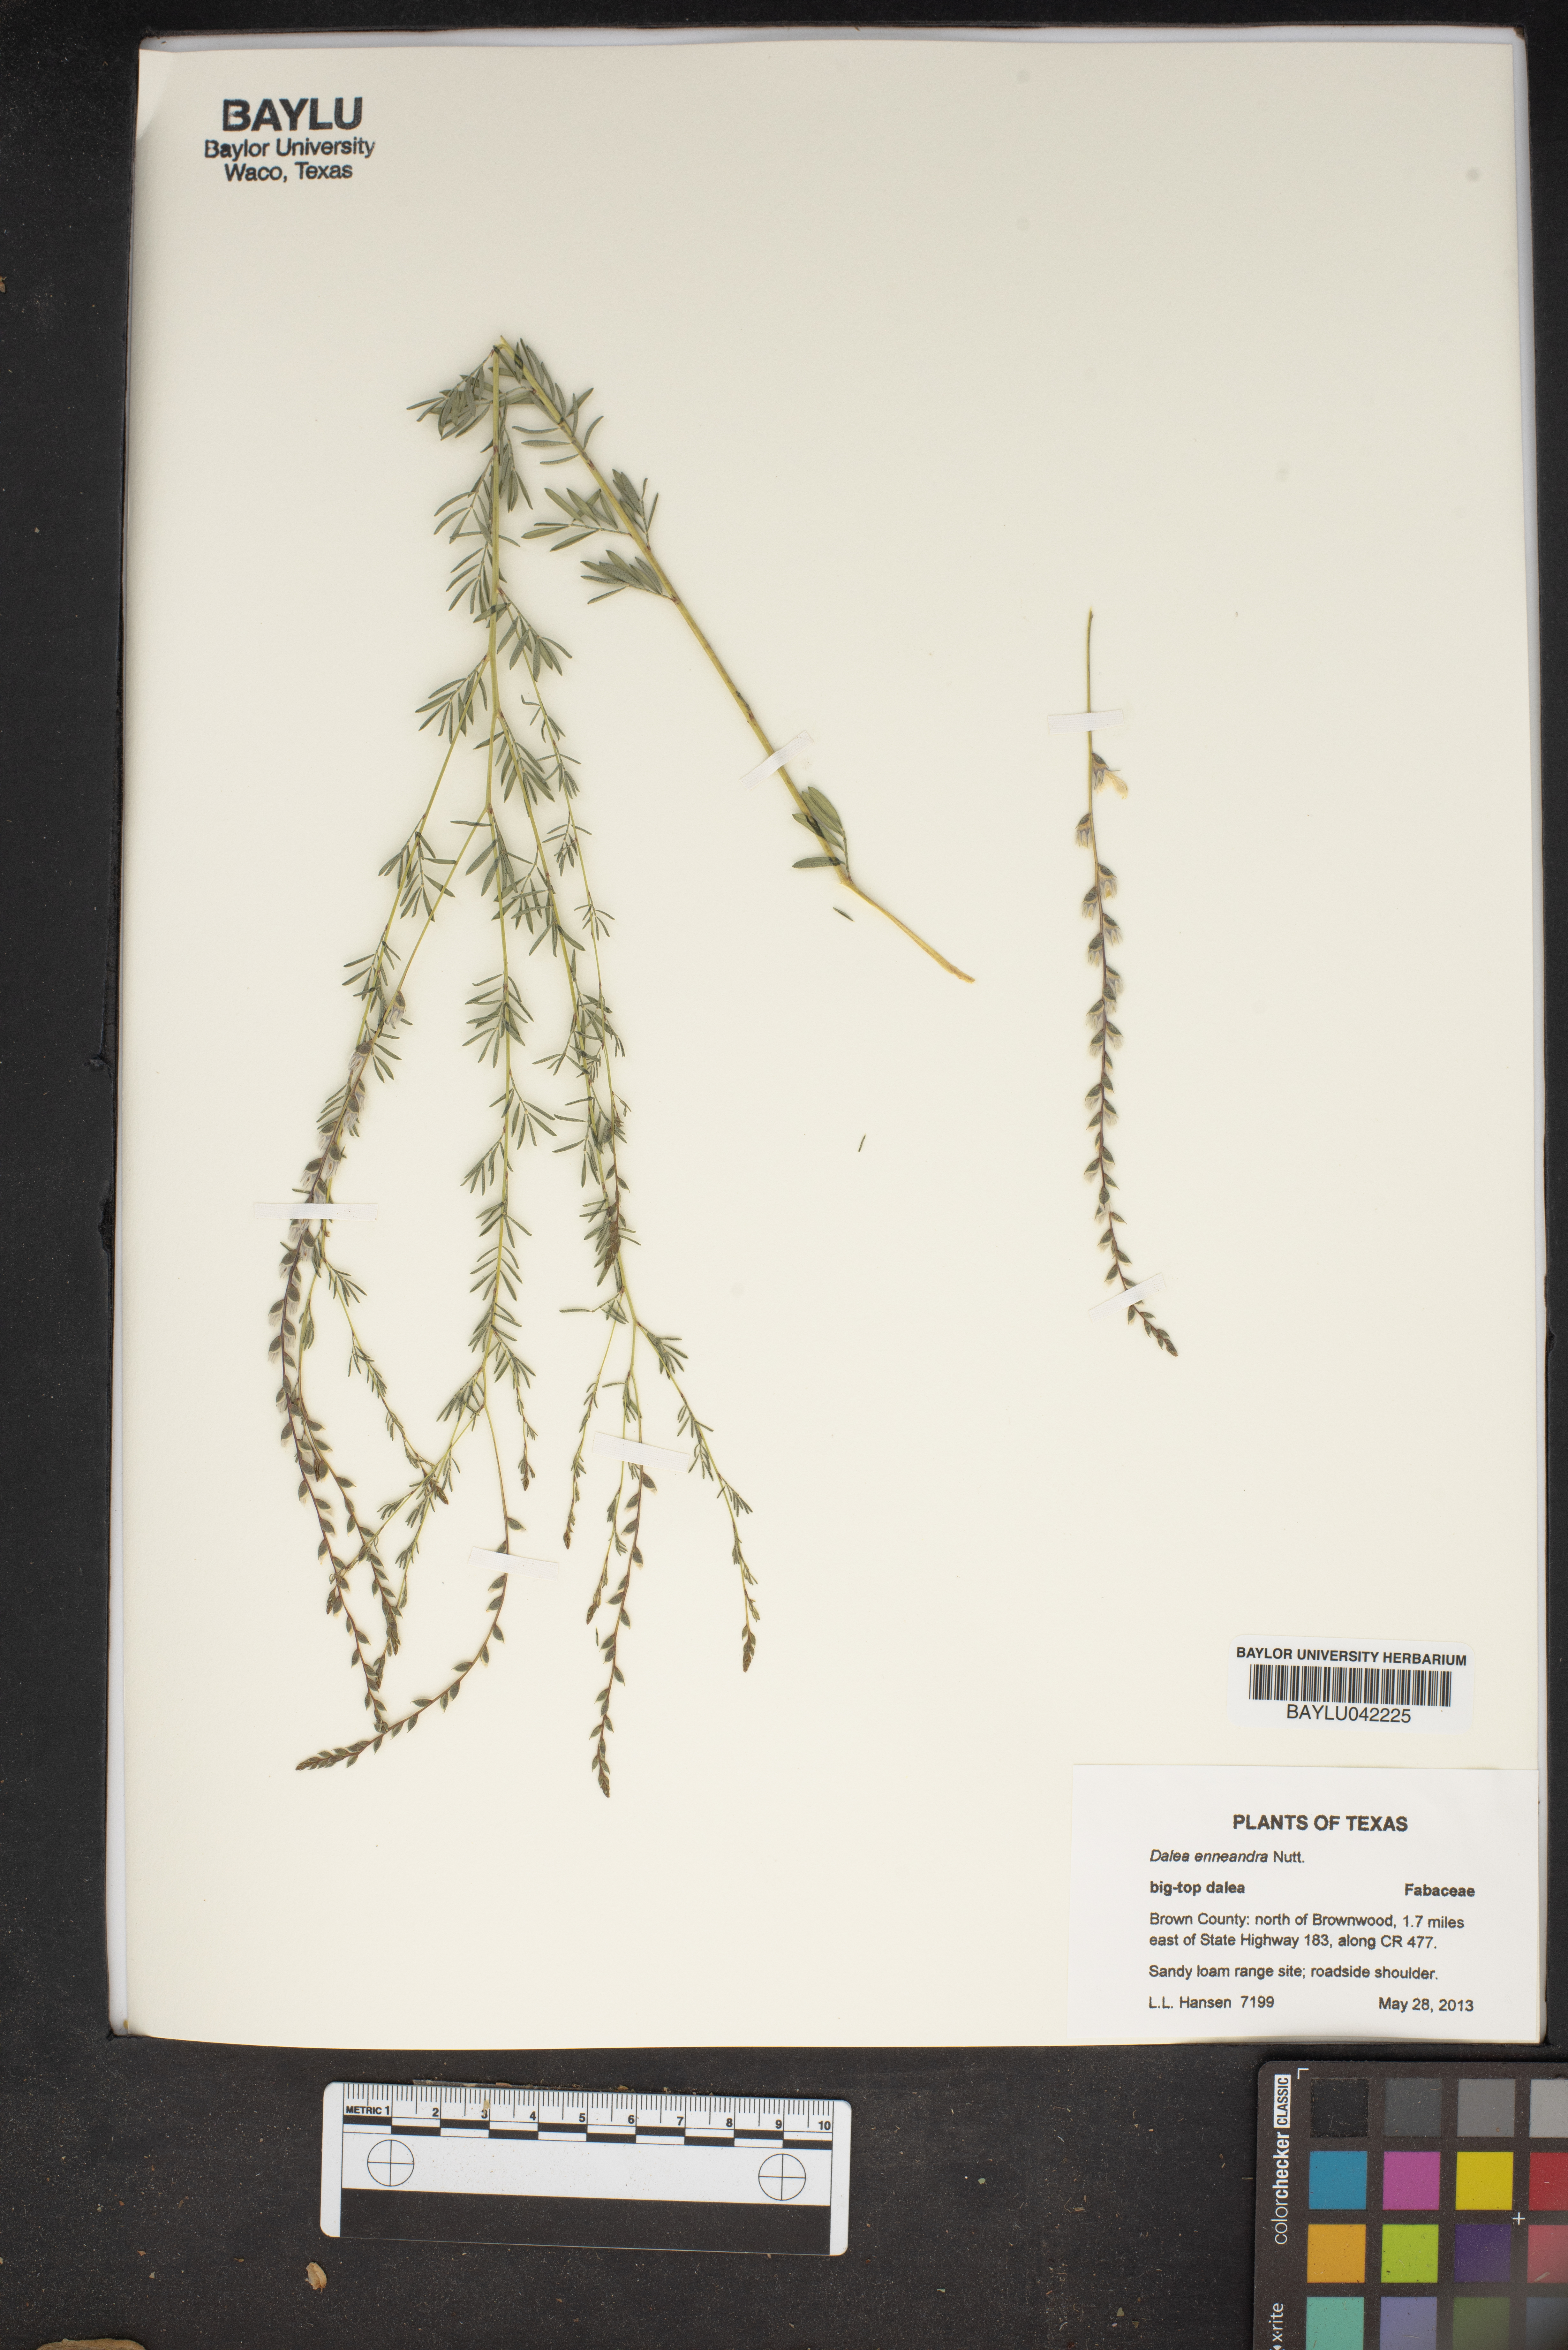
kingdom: Plantae
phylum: Tracheophyta
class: Magnoliopsida
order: Fabales
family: Fabaceae
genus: Dalea
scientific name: Dalea enneandra
